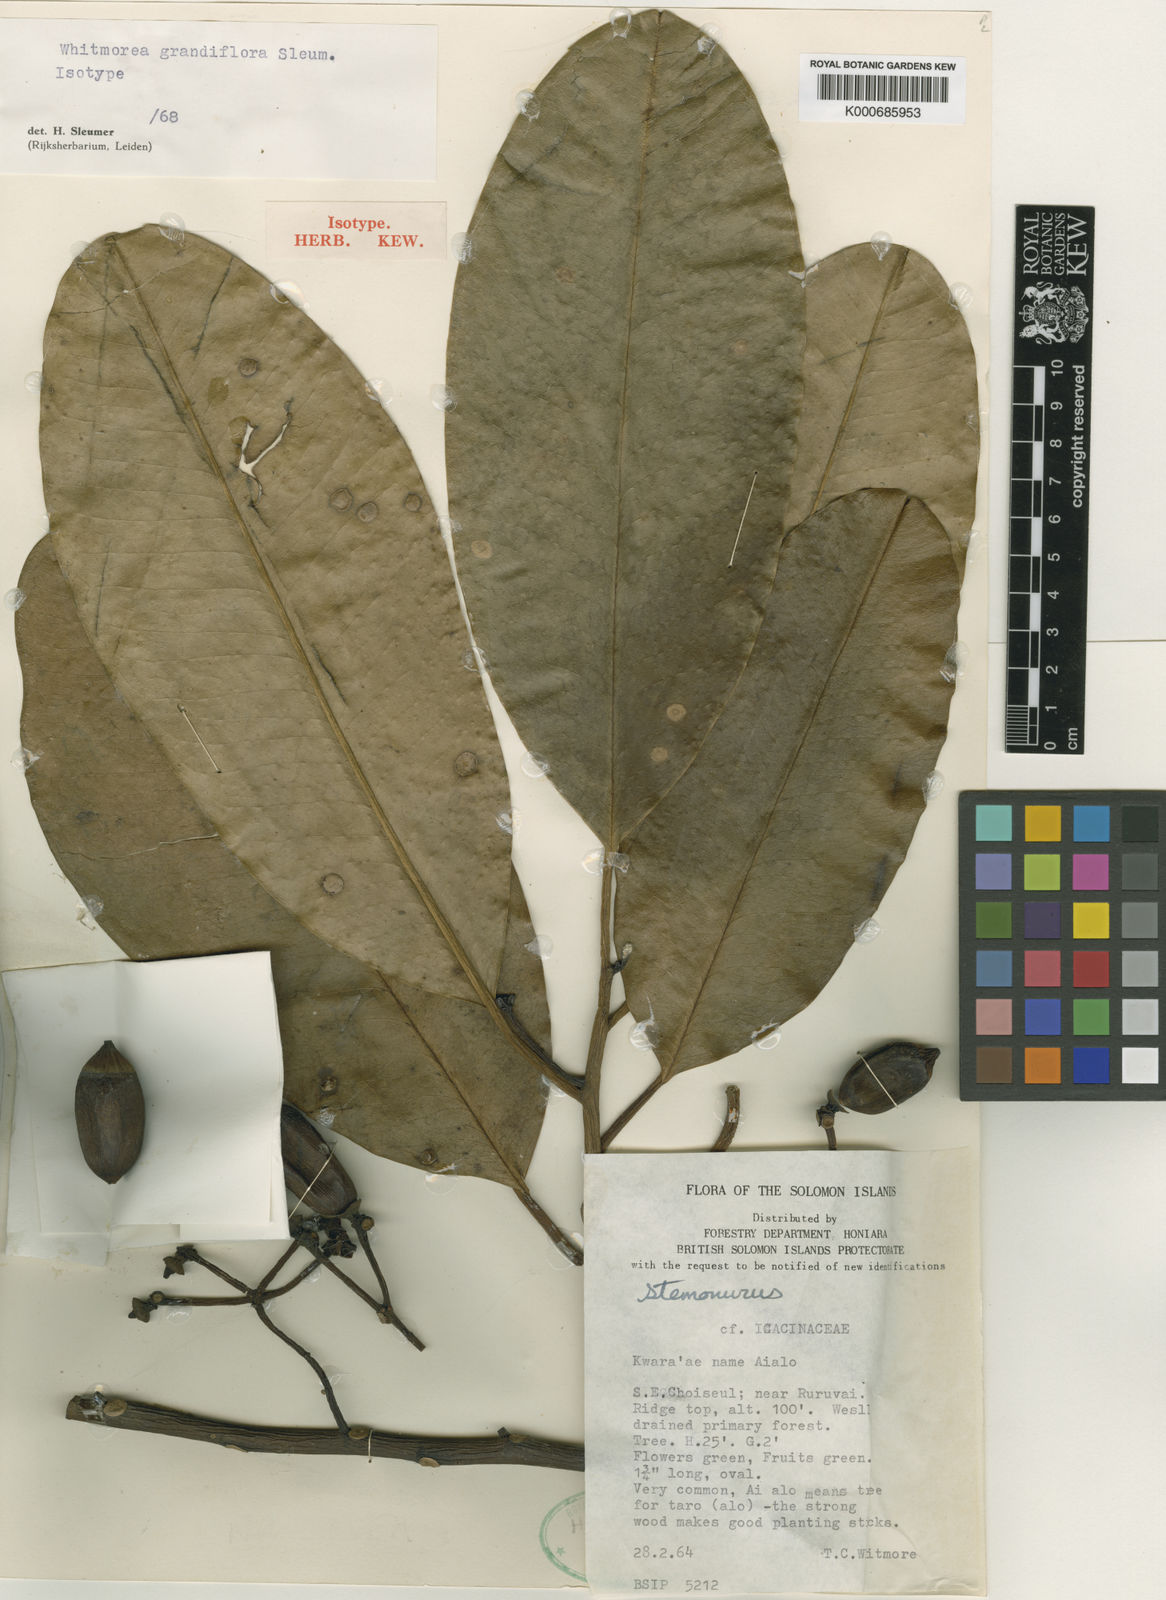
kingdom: Plantae
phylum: Tracheophyta
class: Magnoliopsida
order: Cardiopteridales
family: Stemonuraceae
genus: Whitmorea
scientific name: Whitmorea grandiflora
